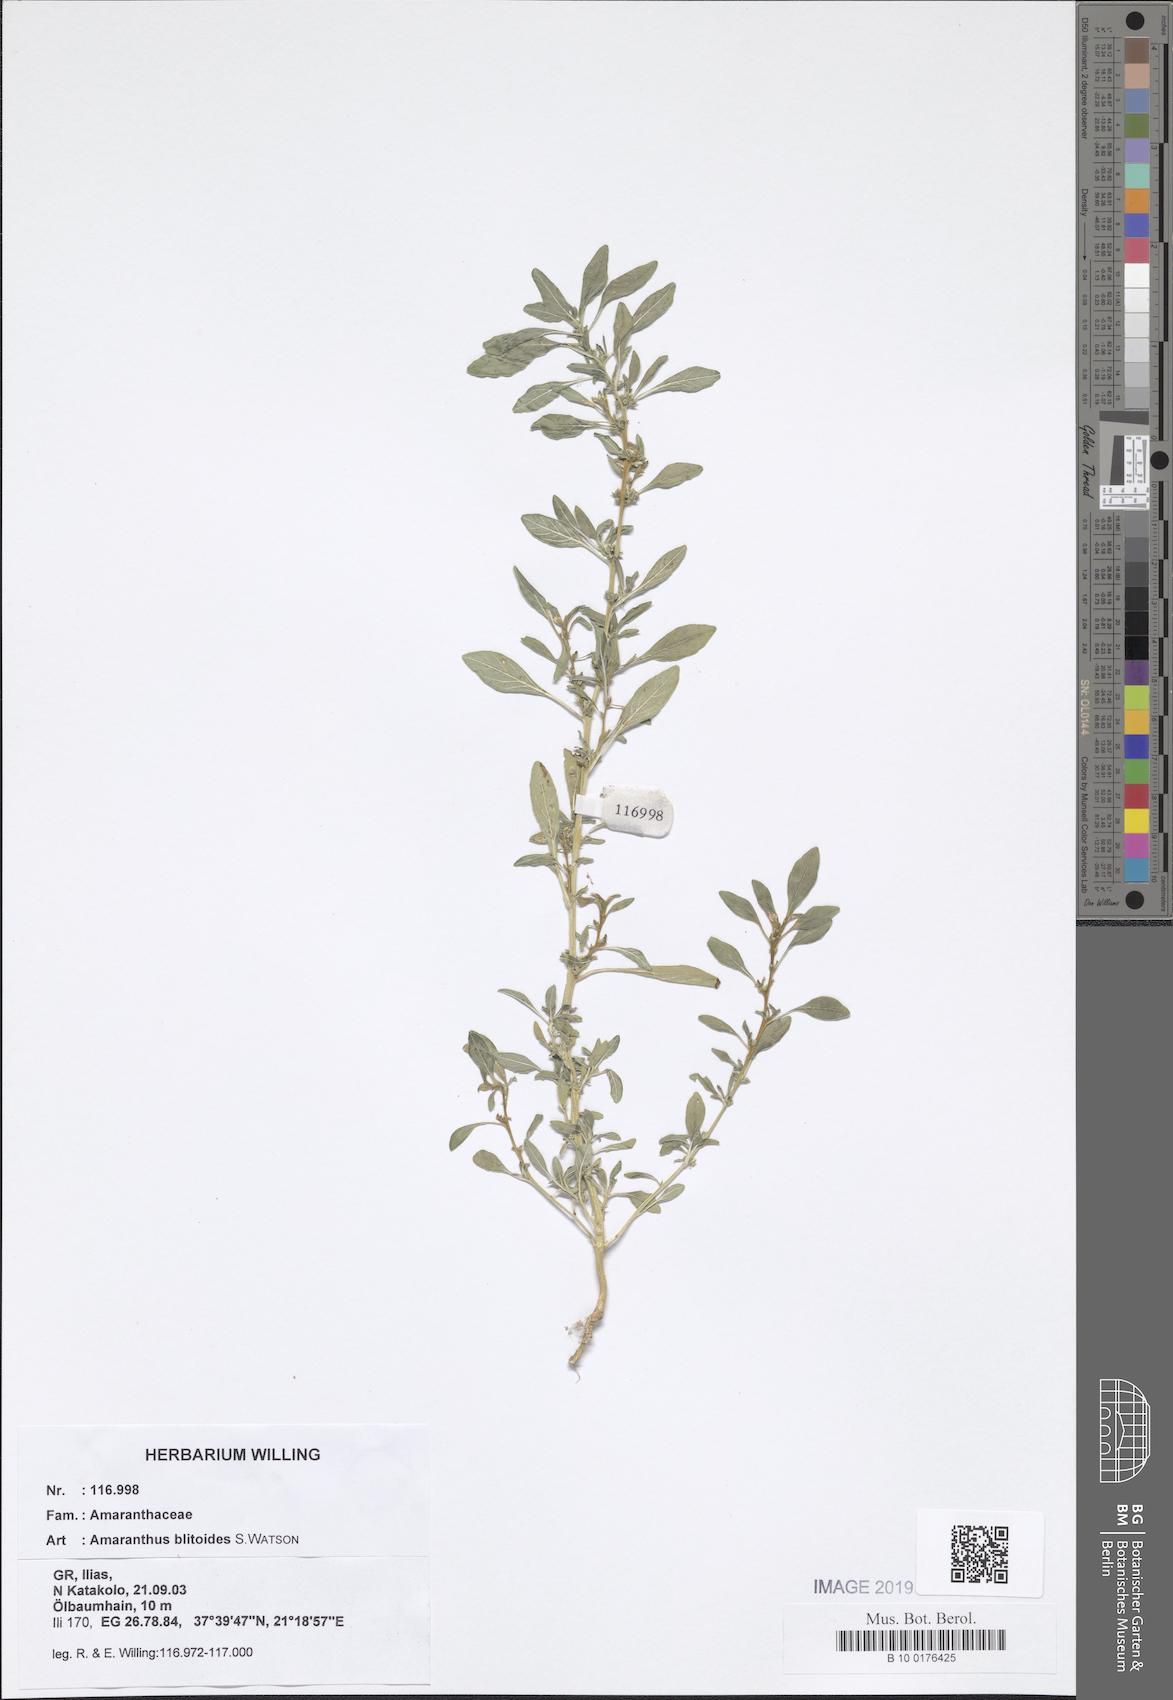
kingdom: Plantae
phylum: Tracheophyta
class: Magnoliopsida
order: Caryophyllales
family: Amaranthaceae
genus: Amaranthus
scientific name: Amaranthus blitoides
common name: Prostrate pigweed
